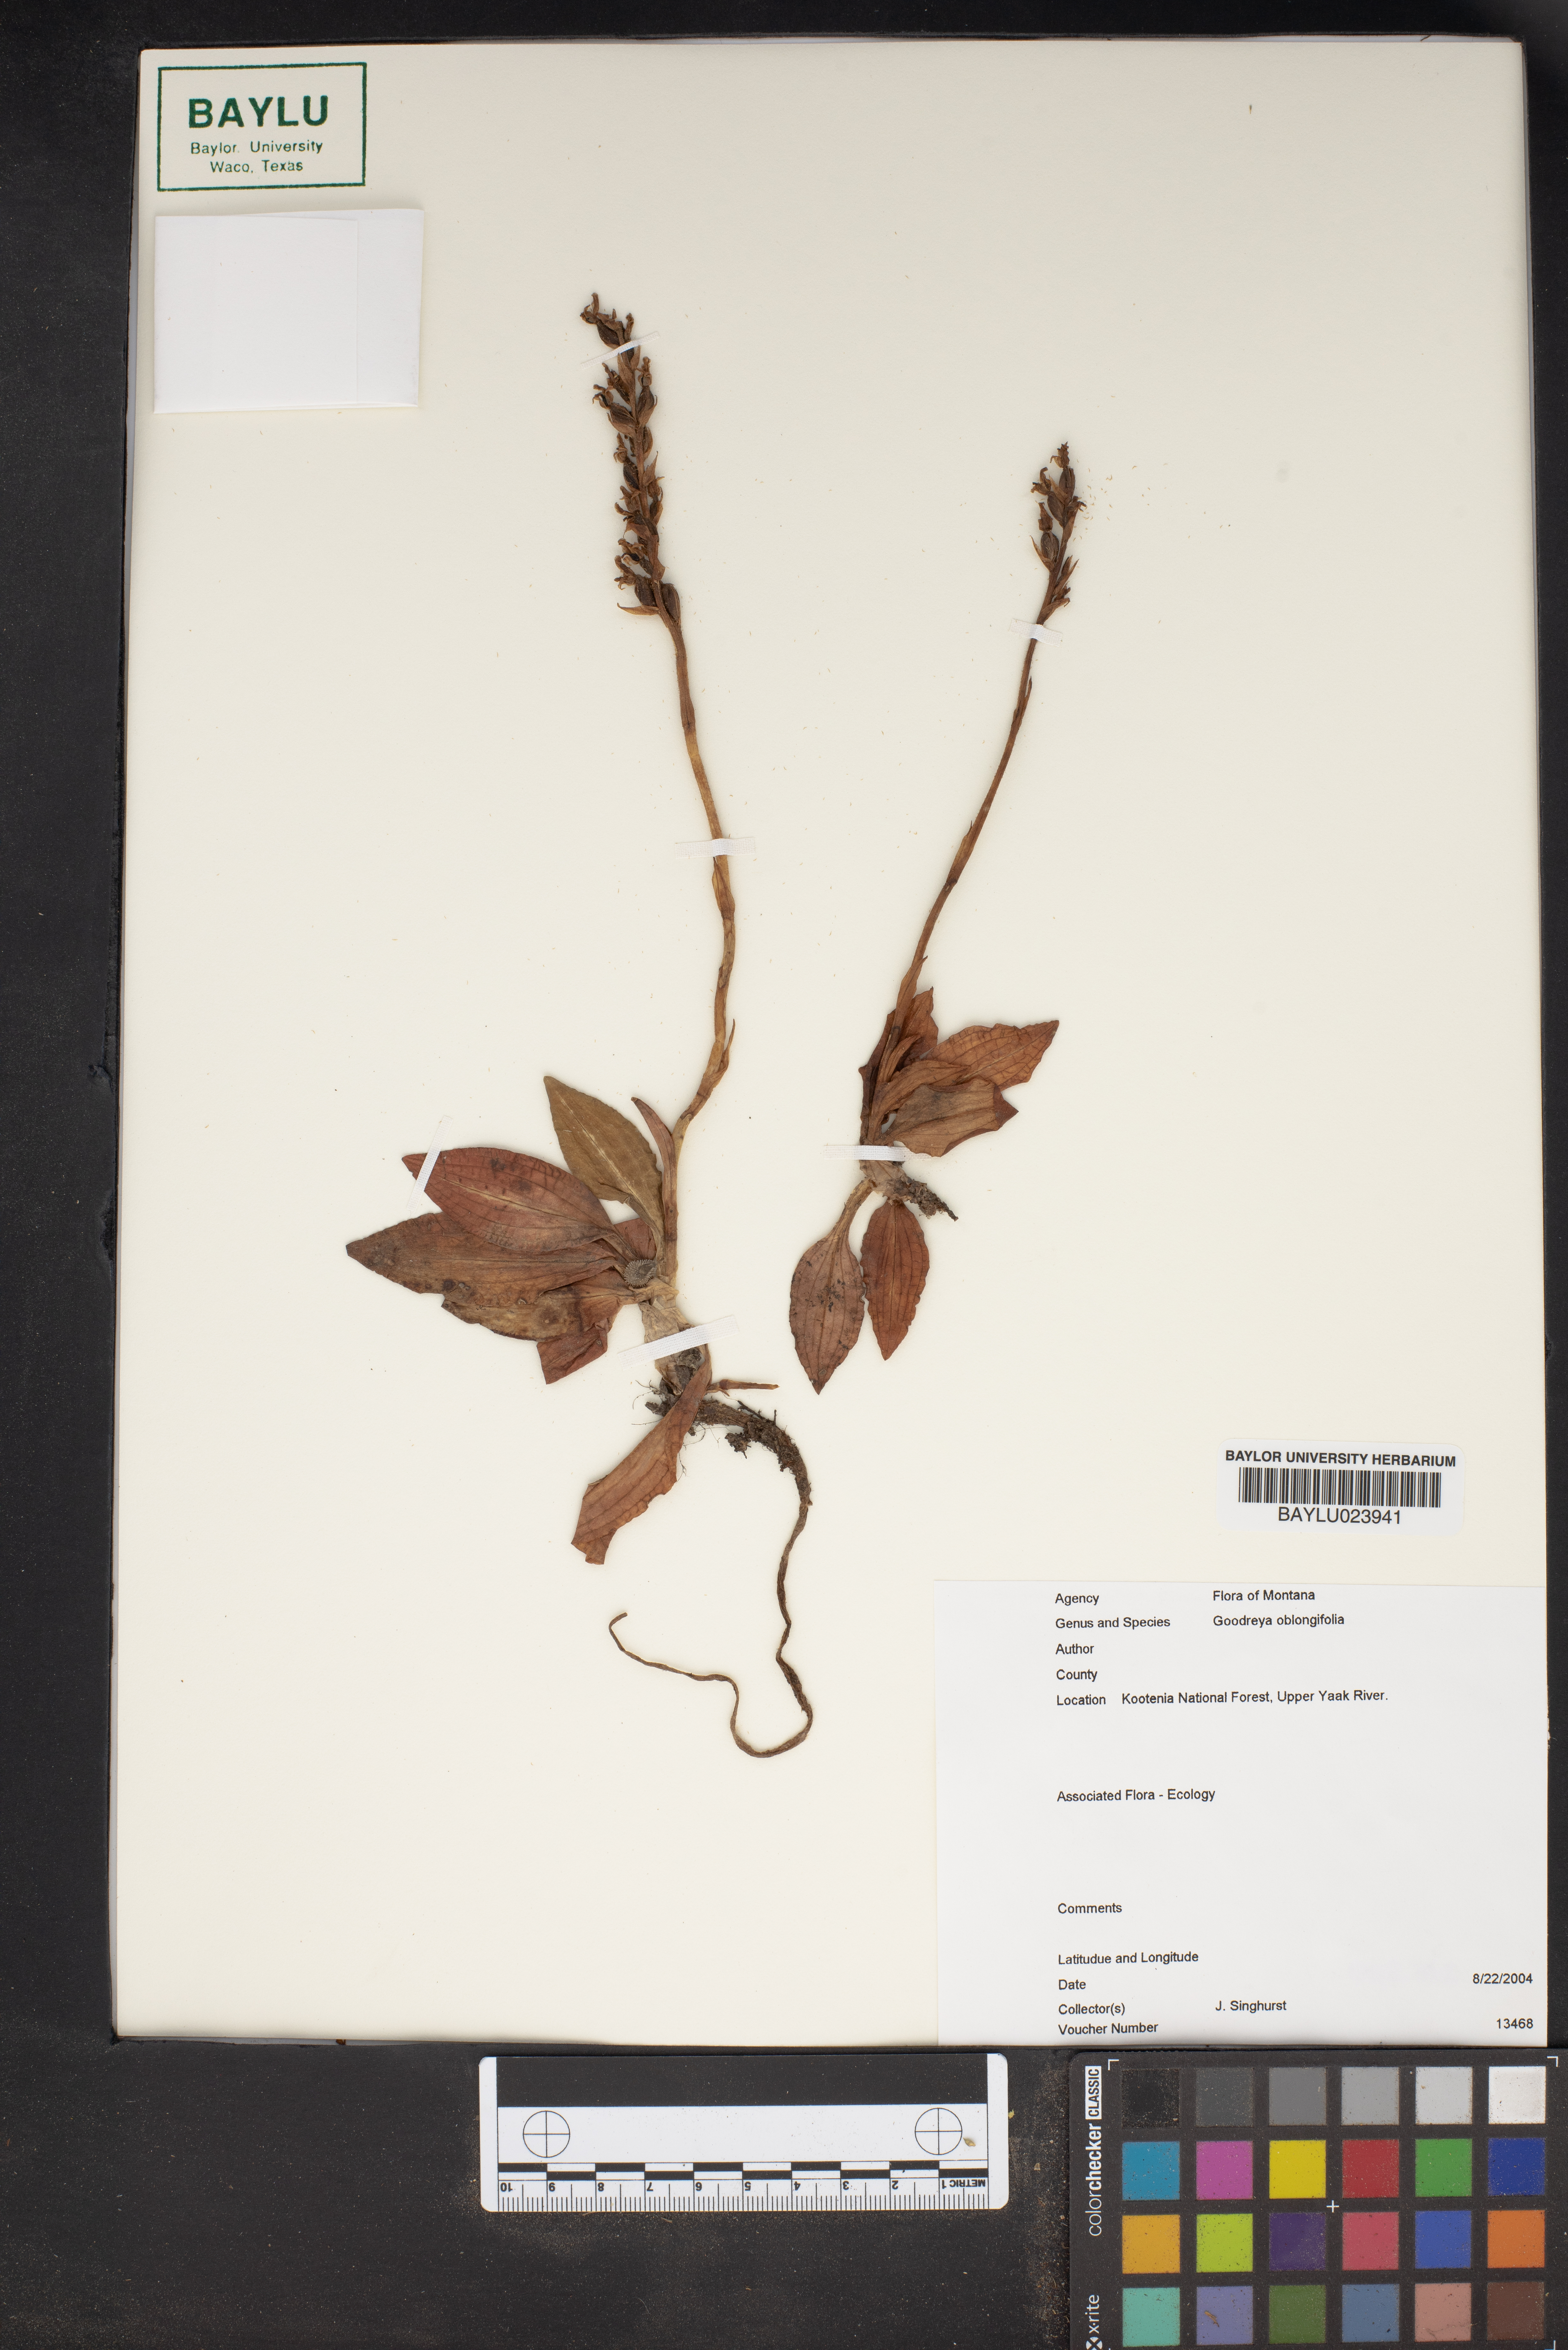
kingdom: Plantae
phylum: Tracheophyta
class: Liliopsida
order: Asparagales
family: Orchidaceae
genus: Goodyera
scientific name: Goodyera oblongifolia
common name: Giant rattlesnake-plantain
